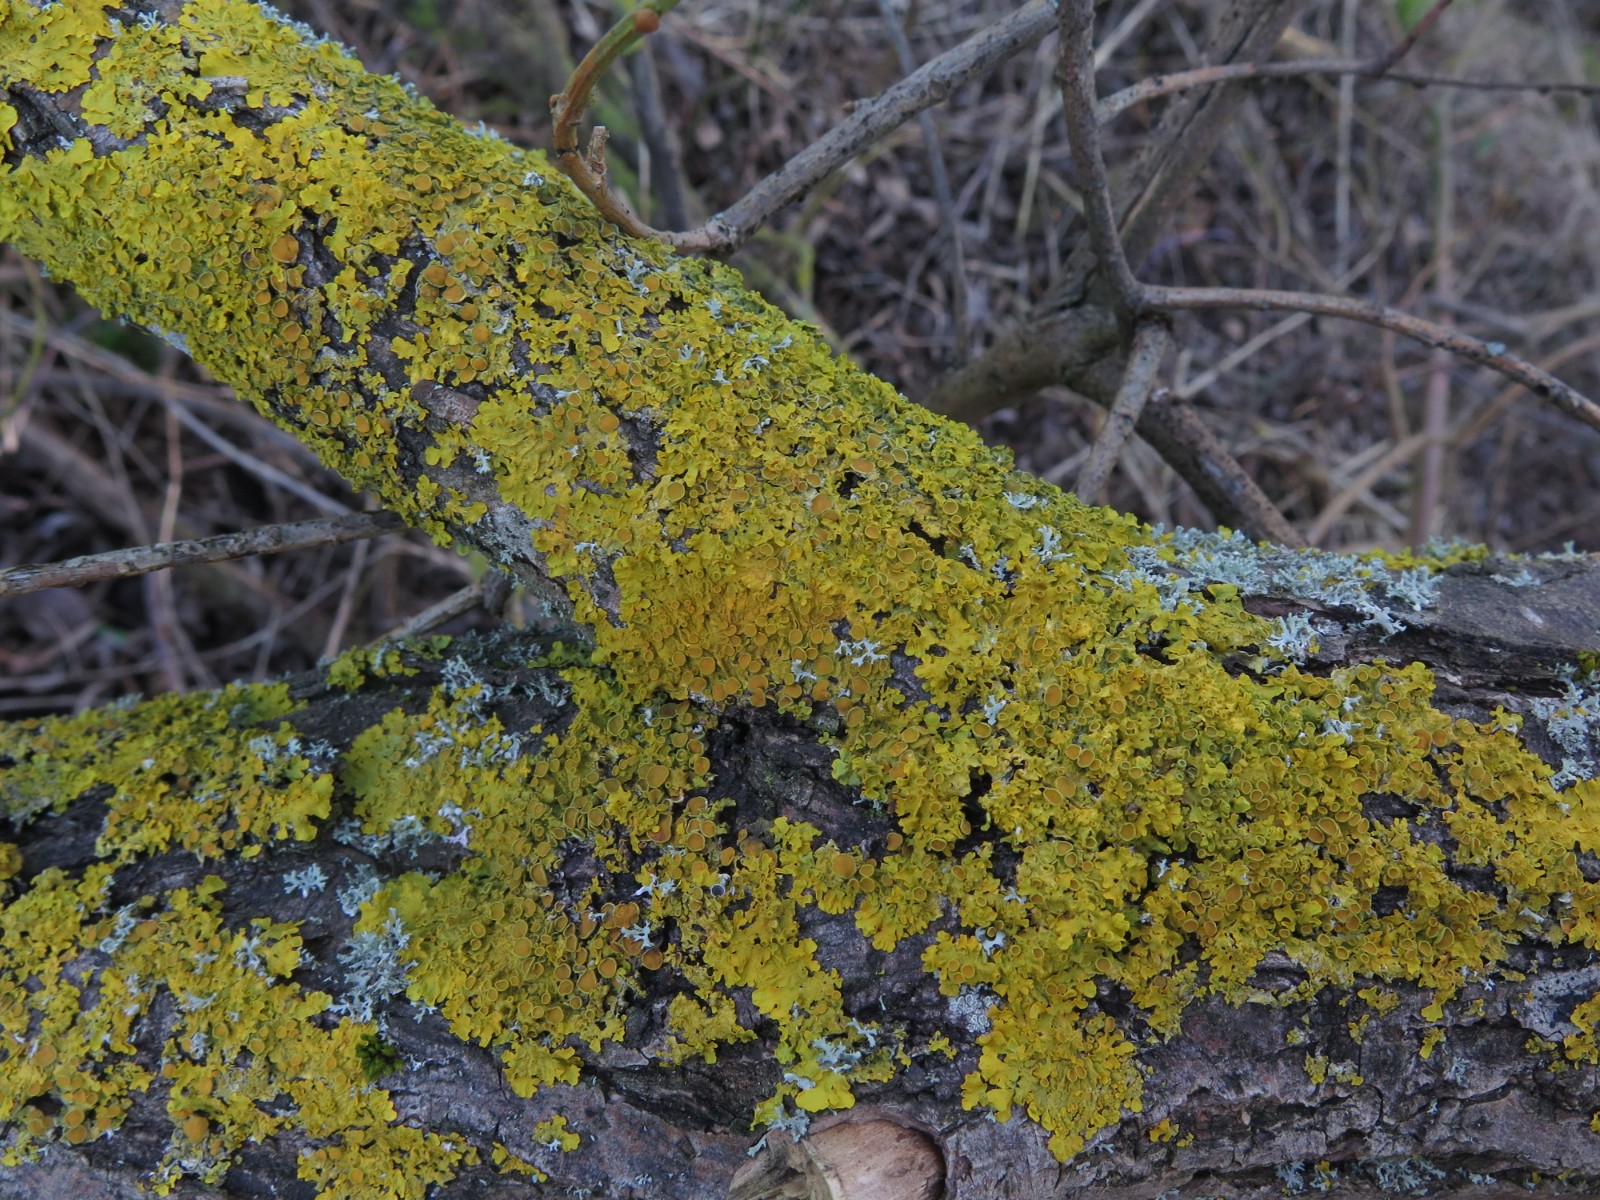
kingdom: Fungi
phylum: Ascomycota
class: Lecanoromycetes
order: Teloschistales
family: Teloschistaceae
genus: Xanthoria
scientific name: Xanthoria parietina
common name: almindelig væggelav
